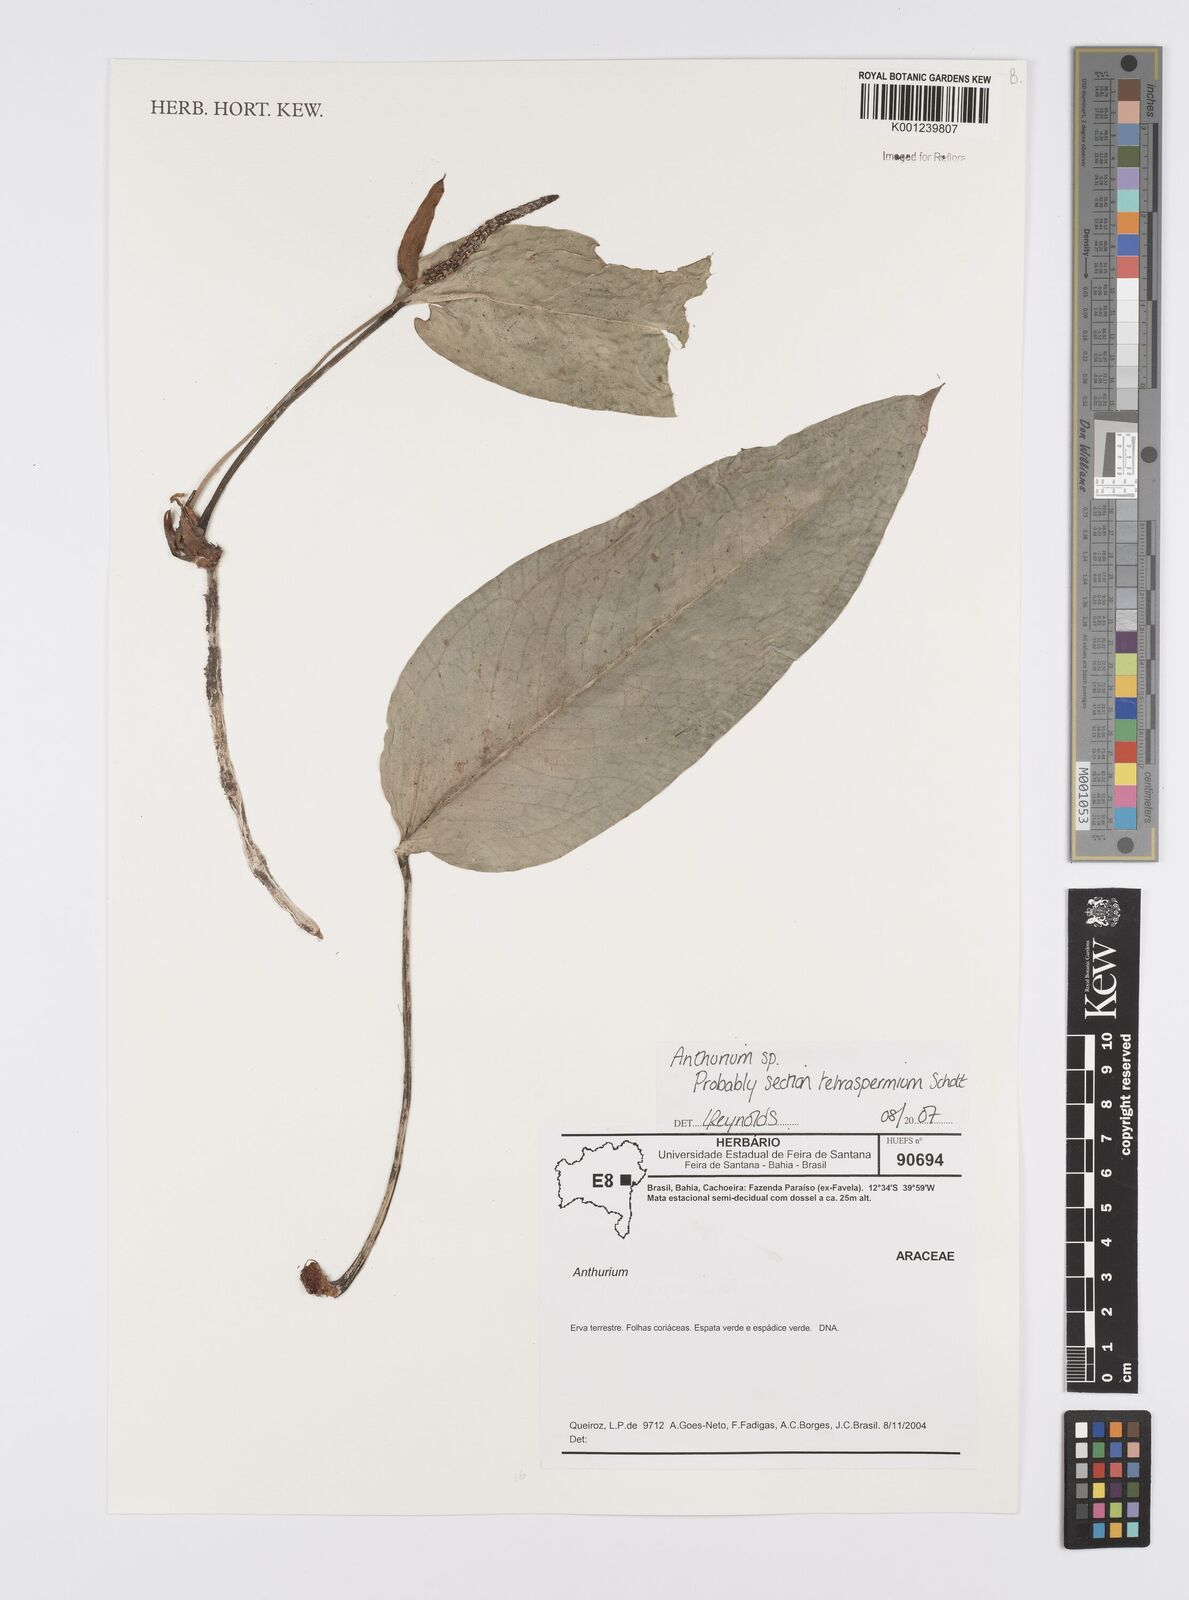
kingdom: Plantae
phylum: Tracheophyta
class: Liliopsida
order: Alismatales
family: Araceae
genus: Anthurium
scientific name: Anthurium bellum
